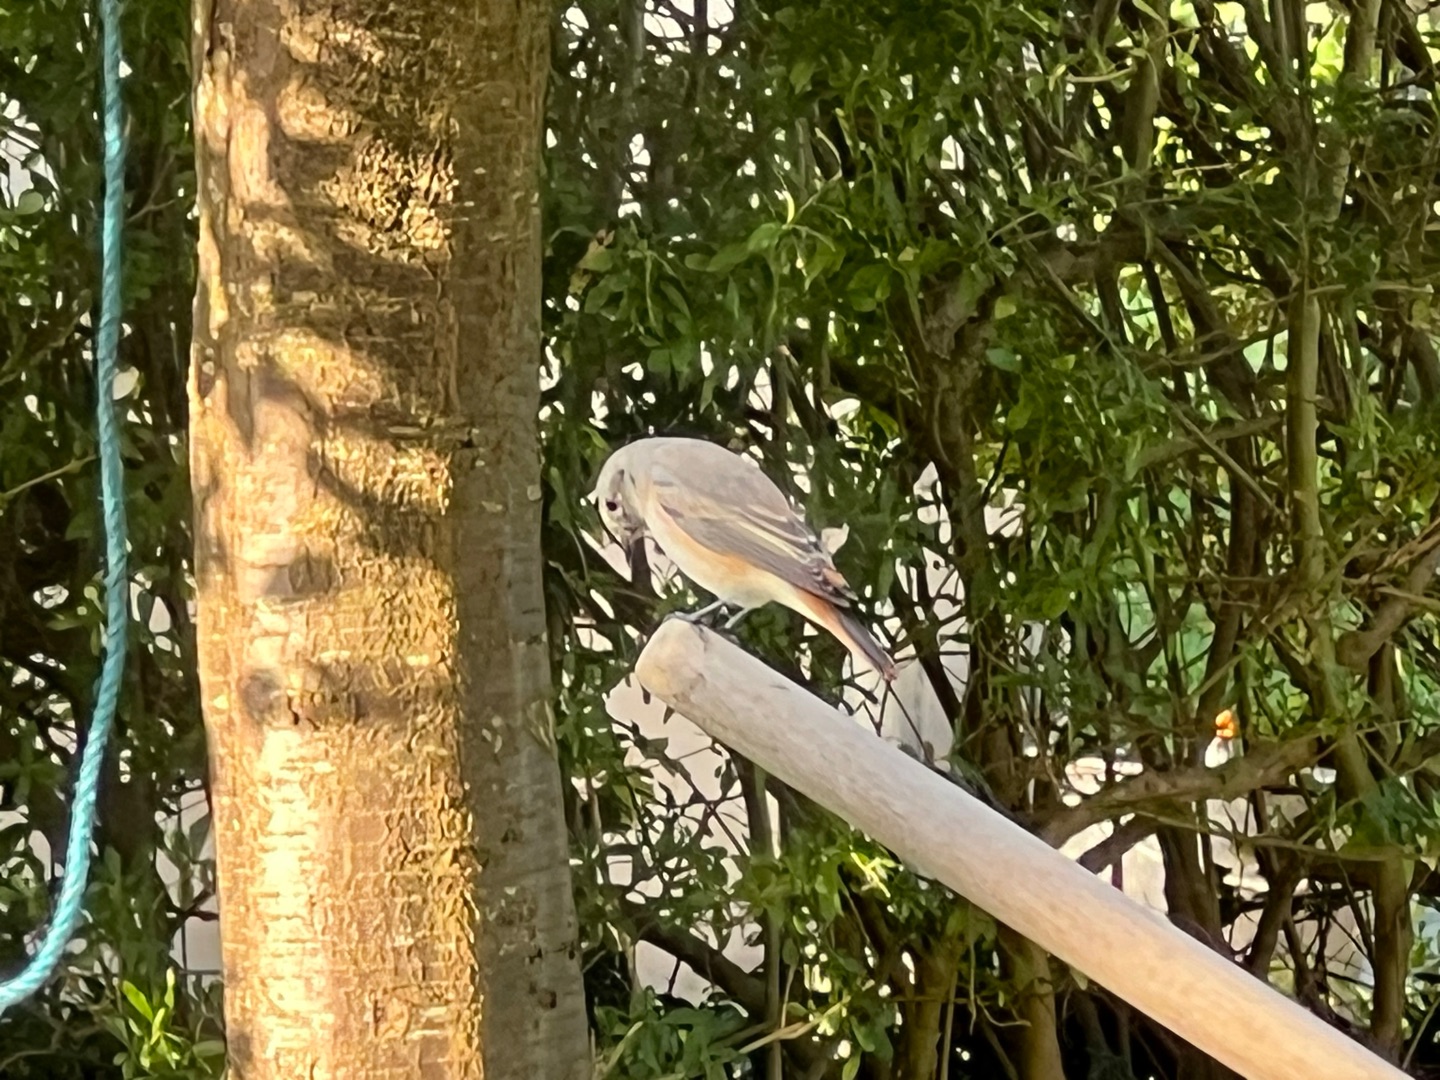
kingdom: Animalia
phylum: Chordata
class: Aves
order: Passeriformes
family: Muscicapidae
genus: Phoenicurus
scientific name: Phoenicurus phoenicurus
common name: Rødstjert
